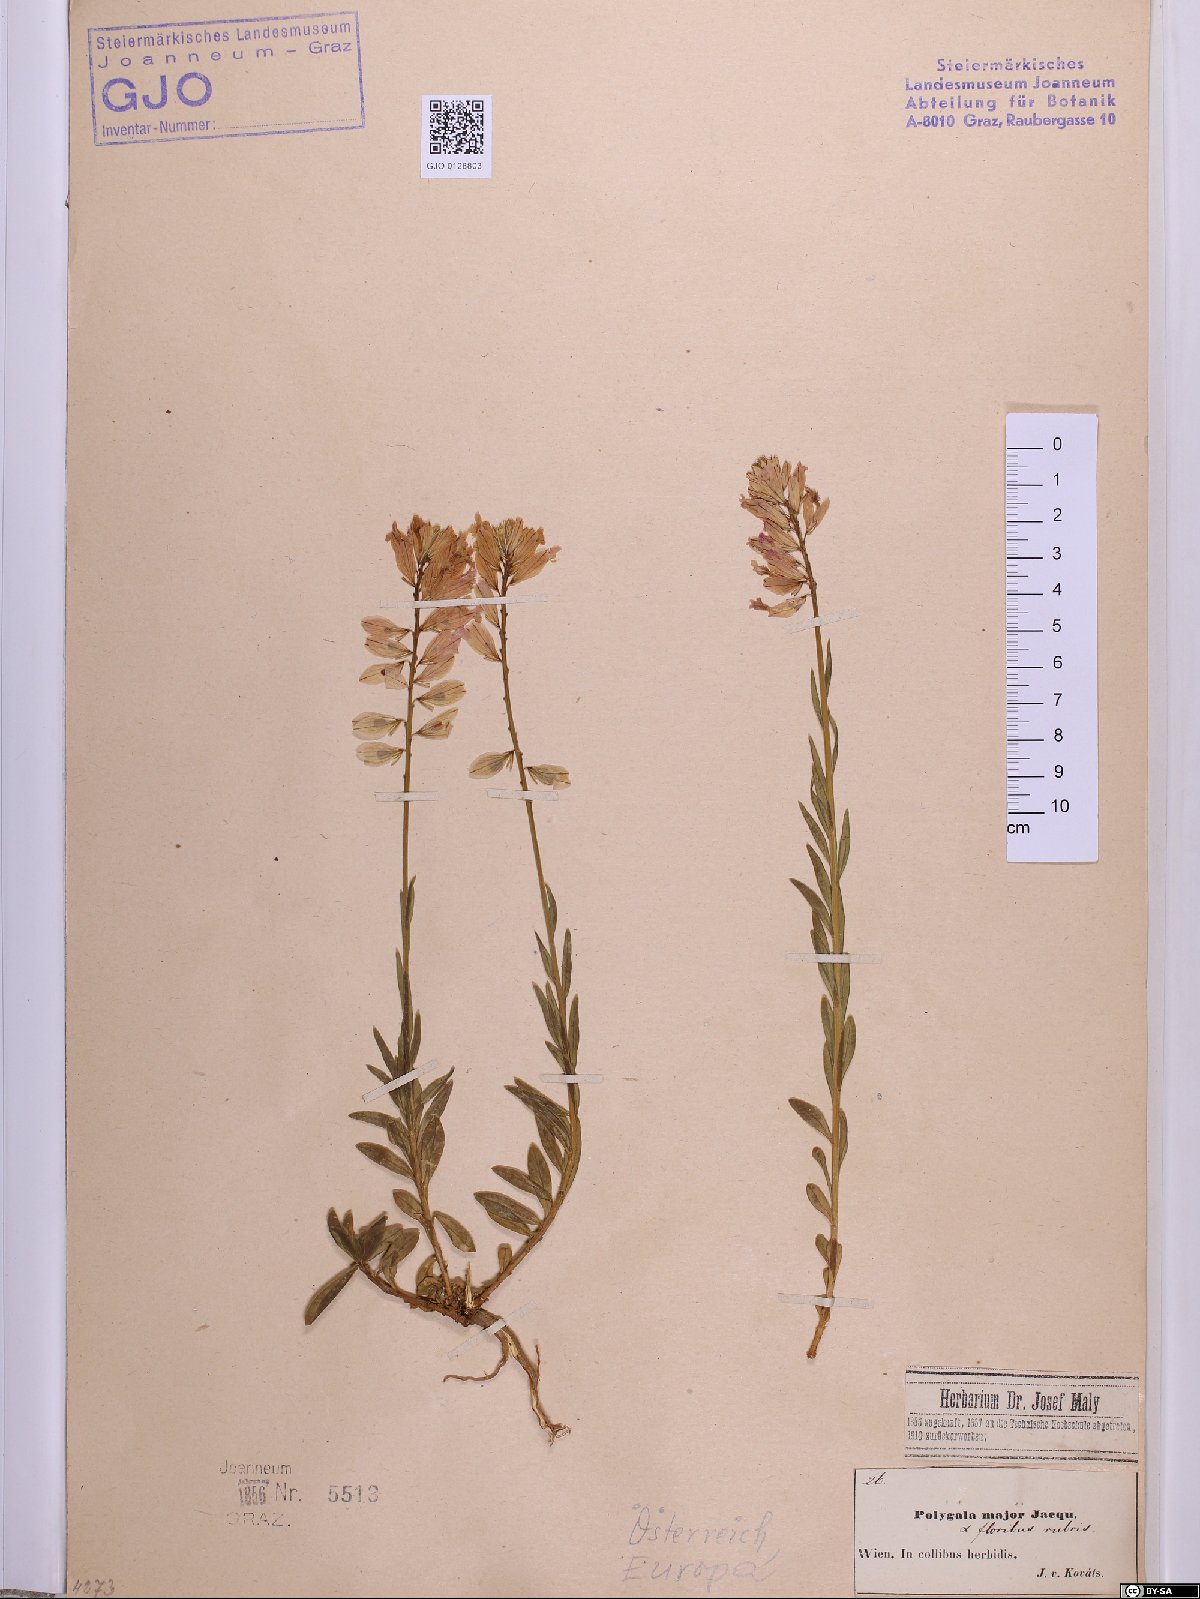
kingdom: Plantae
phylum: Tracheophyta
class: Magnoliopsida
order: Fabales
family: Polygalaceae
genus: Polygala
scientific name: Polygala major
